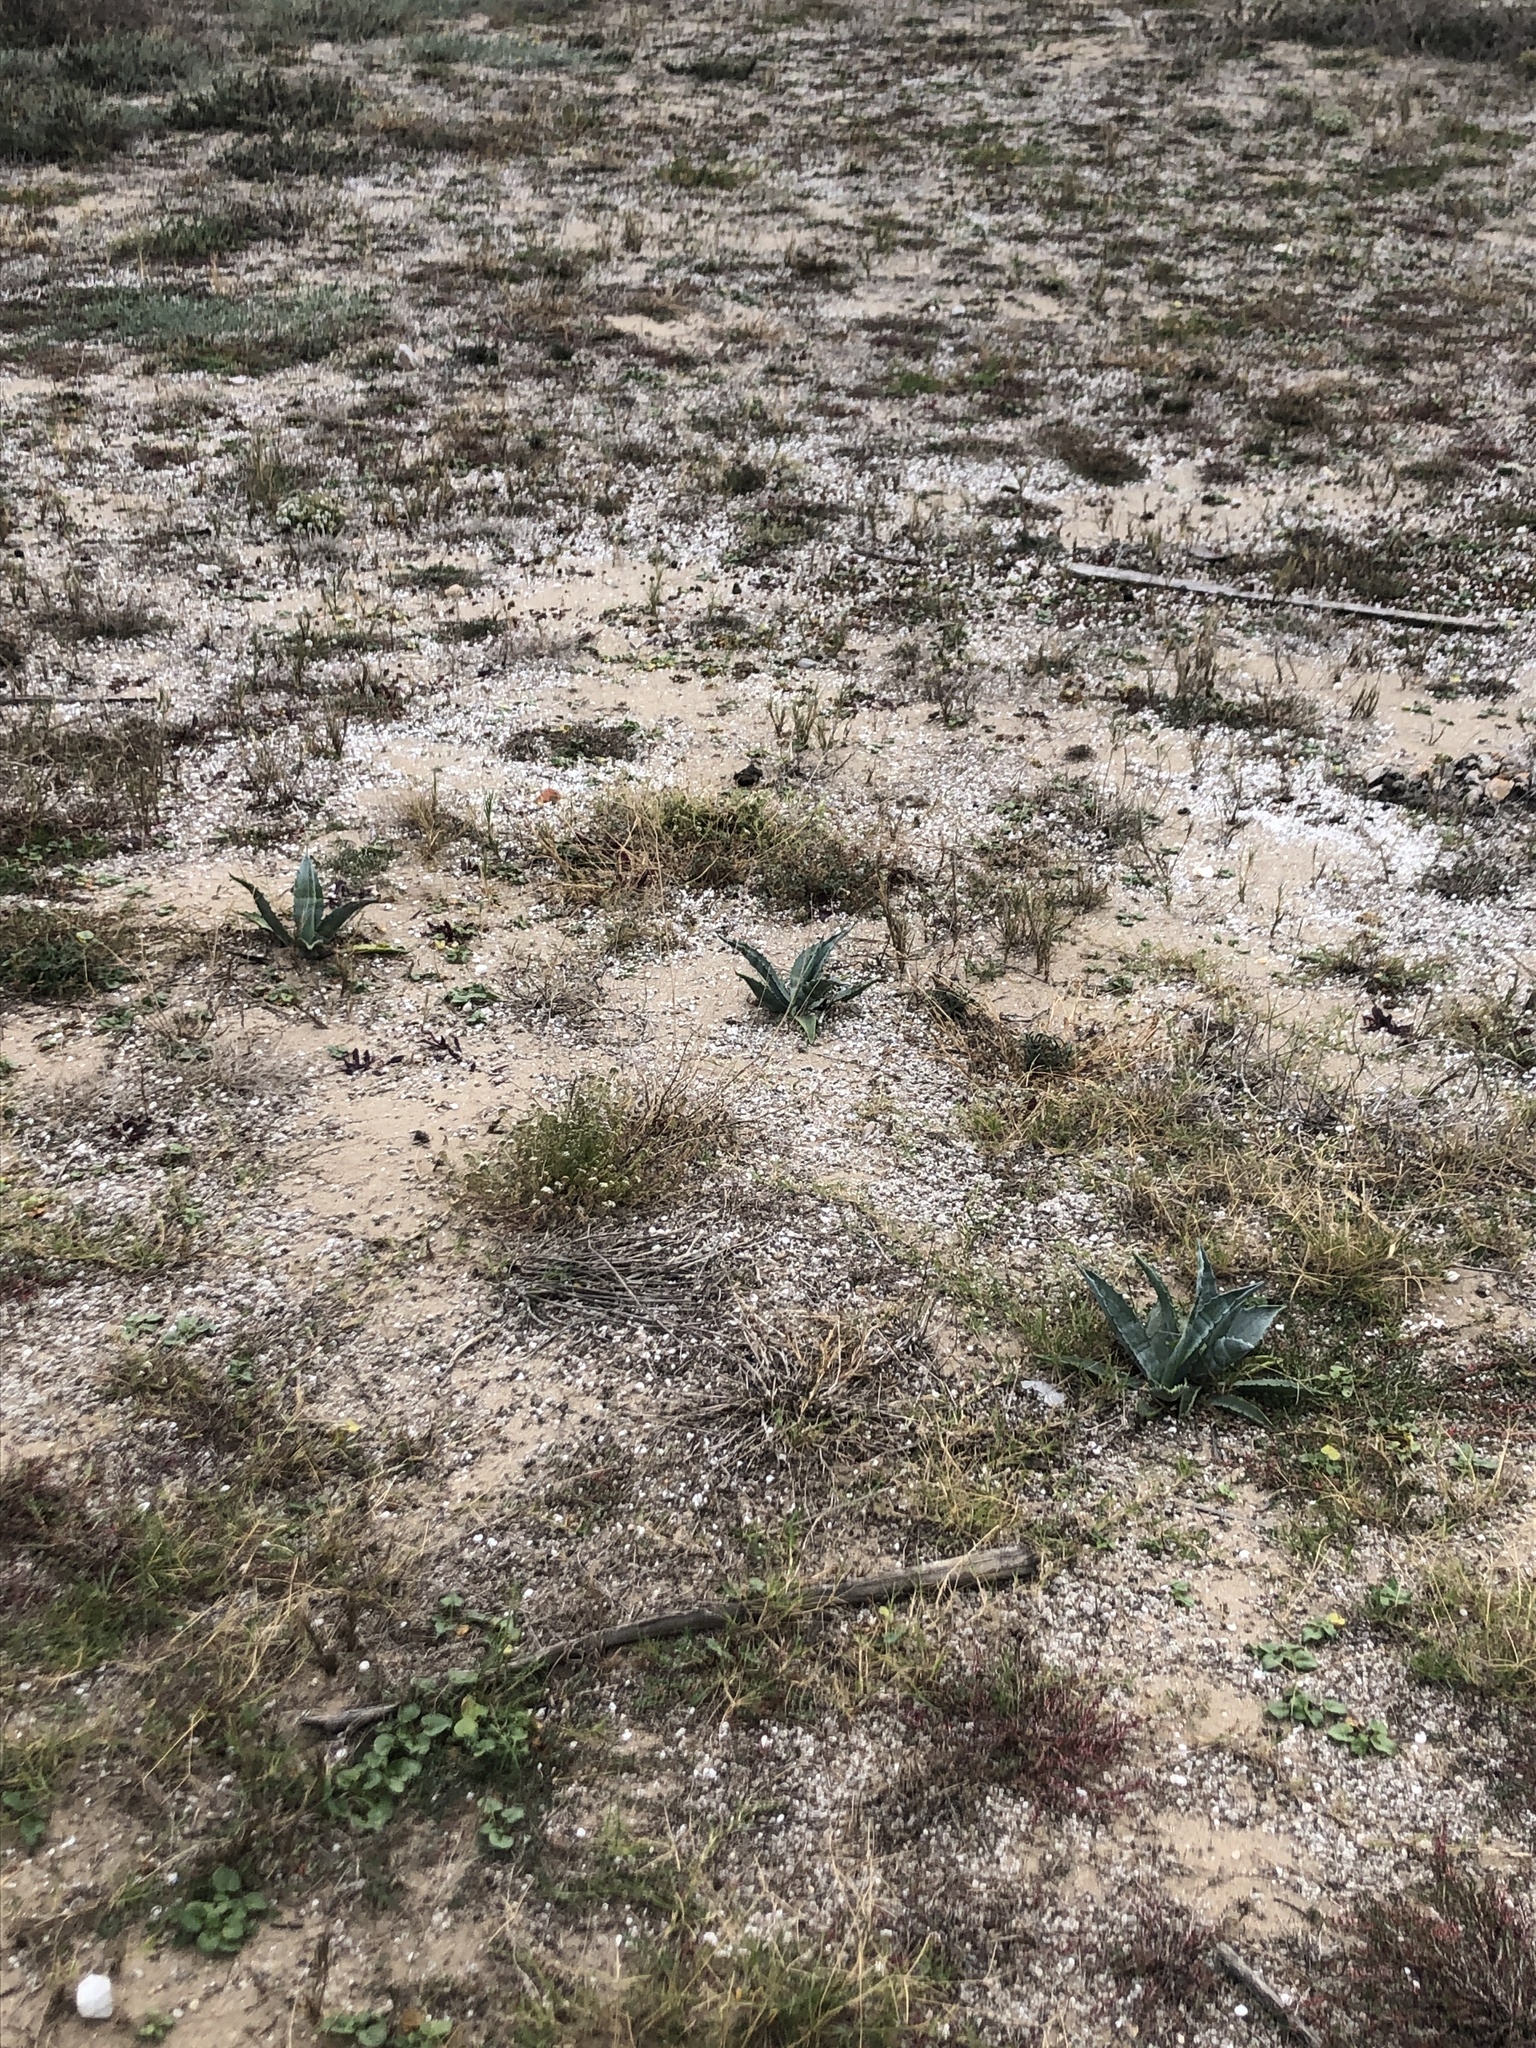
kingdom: Plantae
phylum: Tracheophyta
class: Liliopsida
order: Asparagales
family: Asparagaceae
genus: Agave
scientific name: Agave americana
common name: Centuryplant
